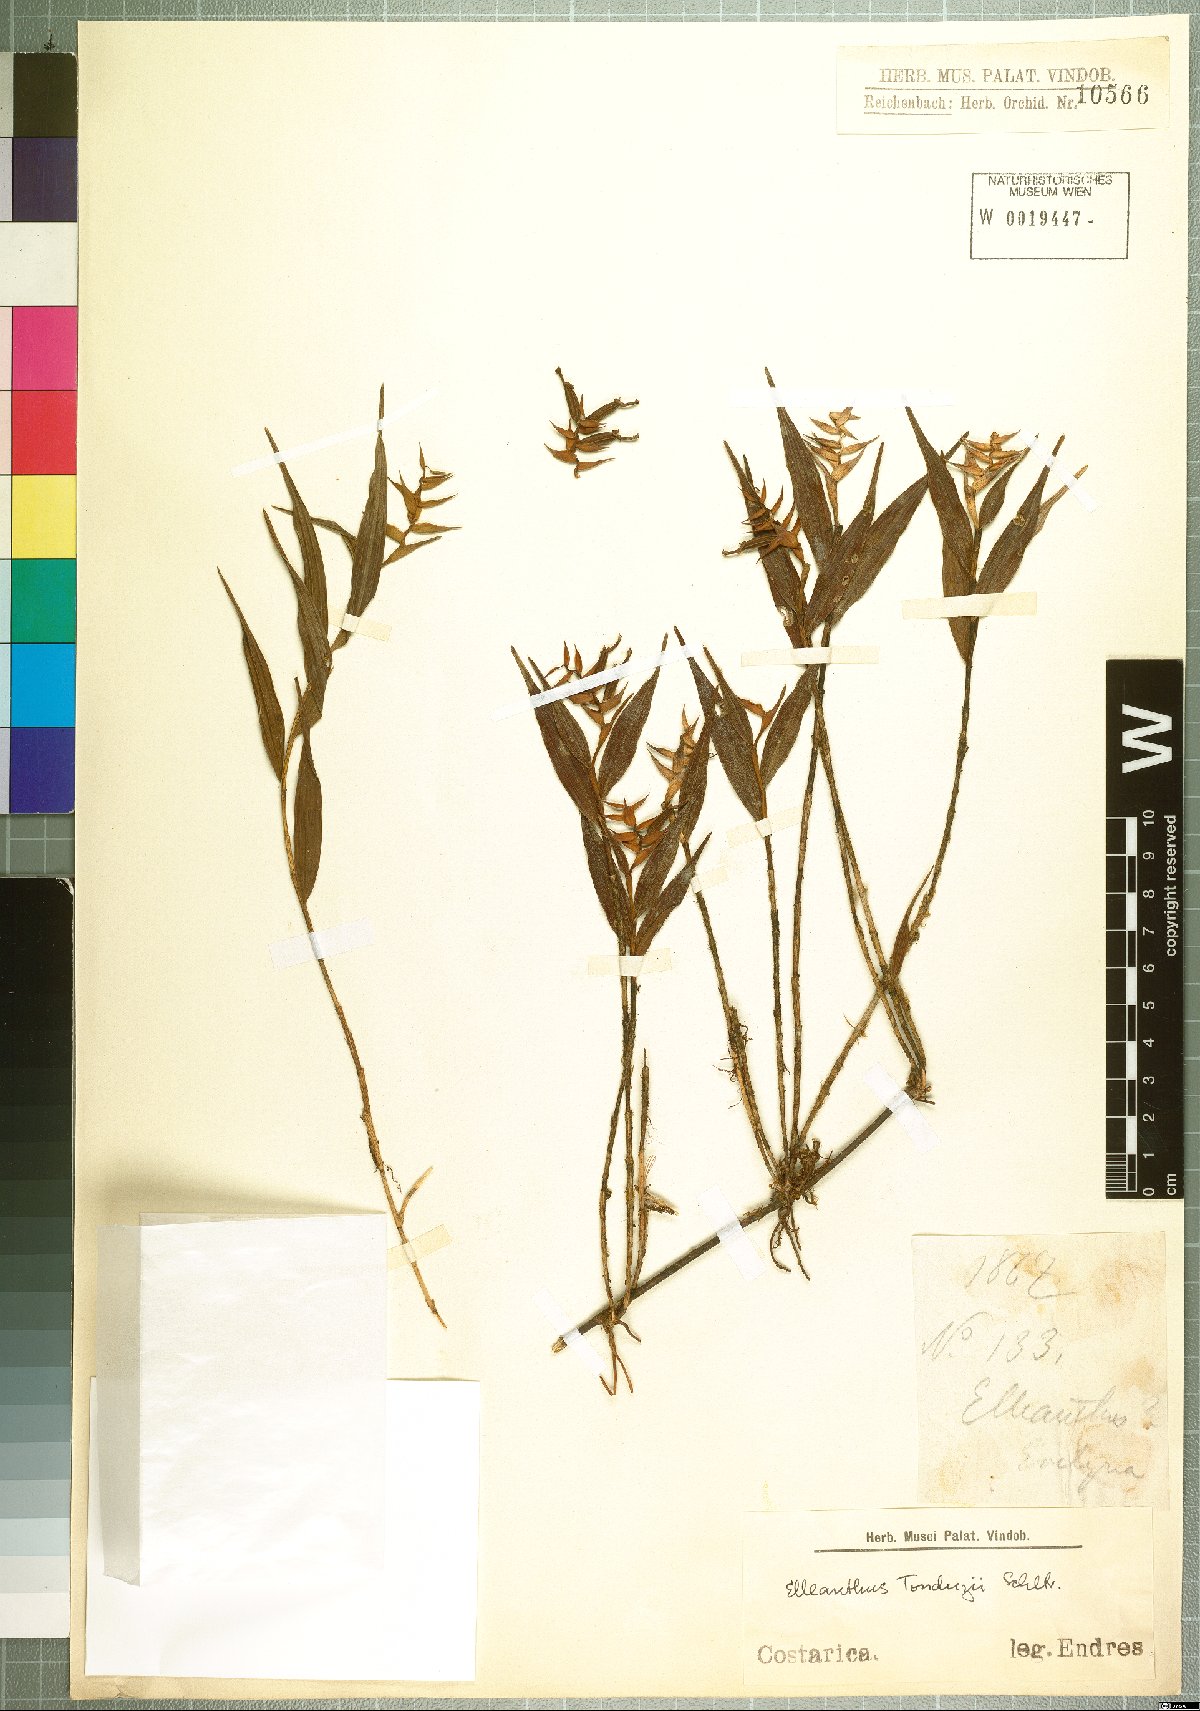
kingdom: Plantae
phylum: Tracheophyta
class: Liliopsida
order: Asparagales
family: Orchidaceae
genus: Elleanthus
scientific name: Elleanthus tonduzii
